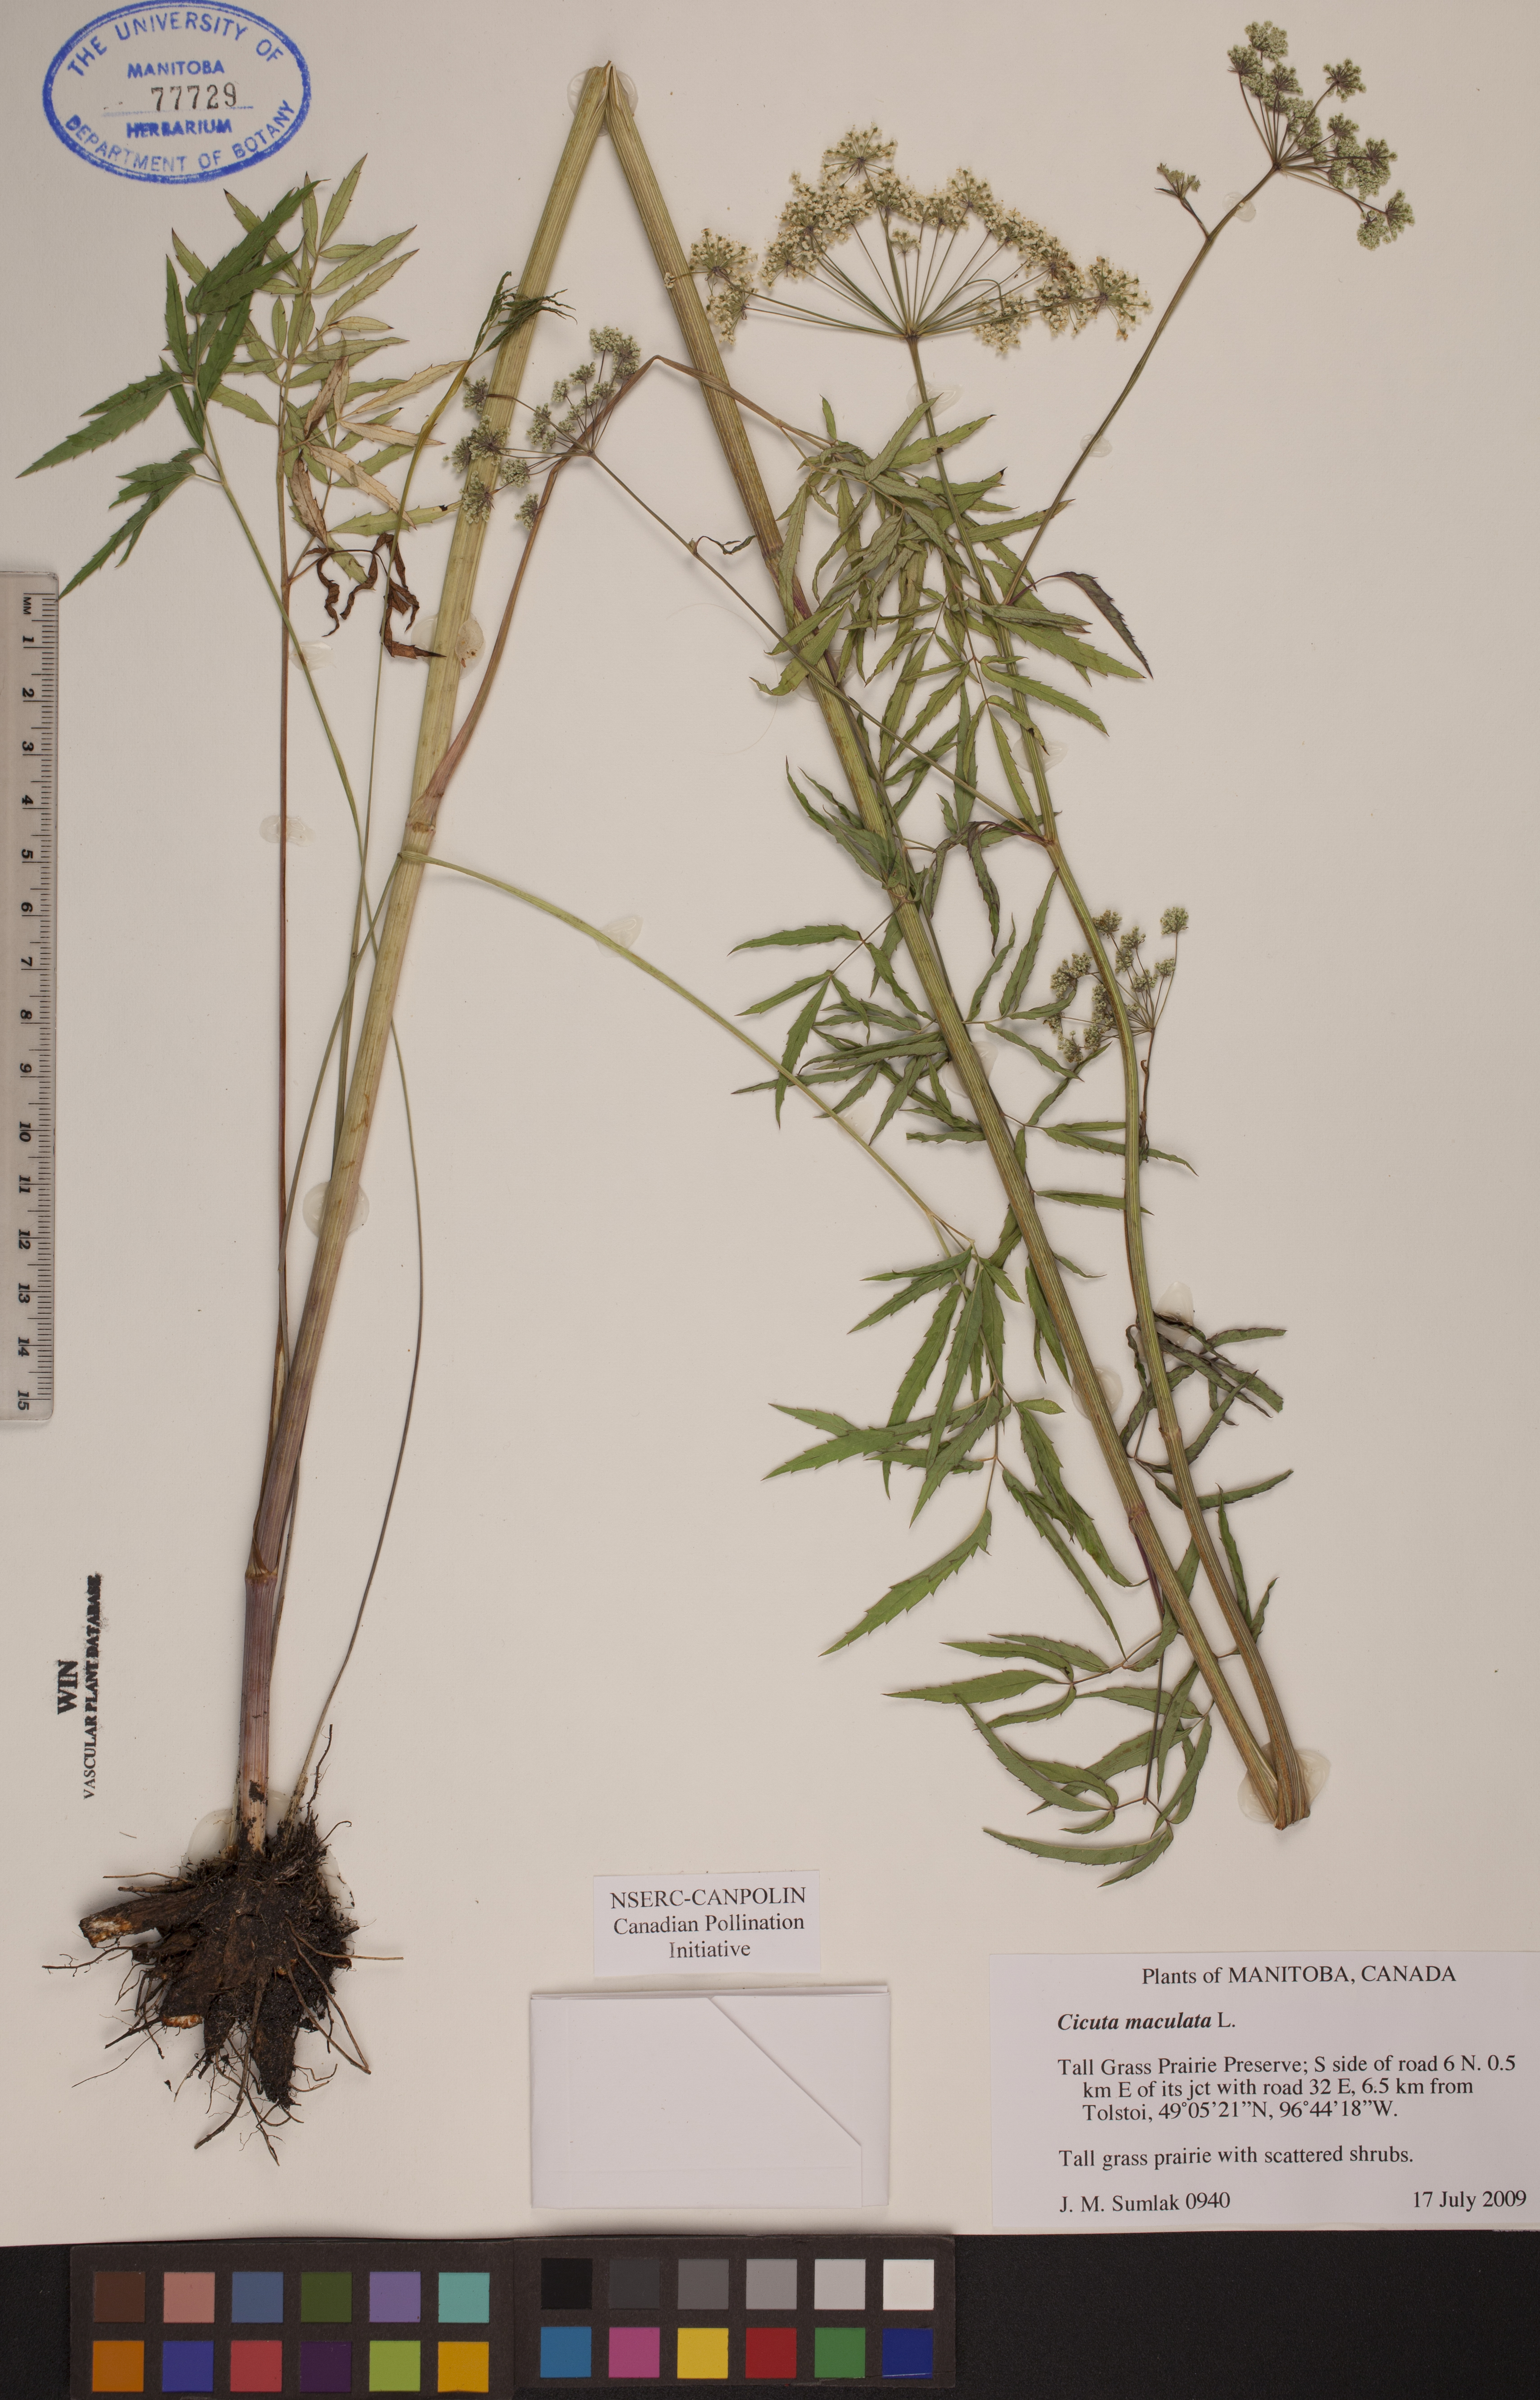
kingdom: Plantae
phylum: Tracheophyta
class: Magnoliopsida
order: Apiales
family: Apiaceae
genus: Cicuta
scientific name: Cicuta maculata
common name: Spotted cowbane
